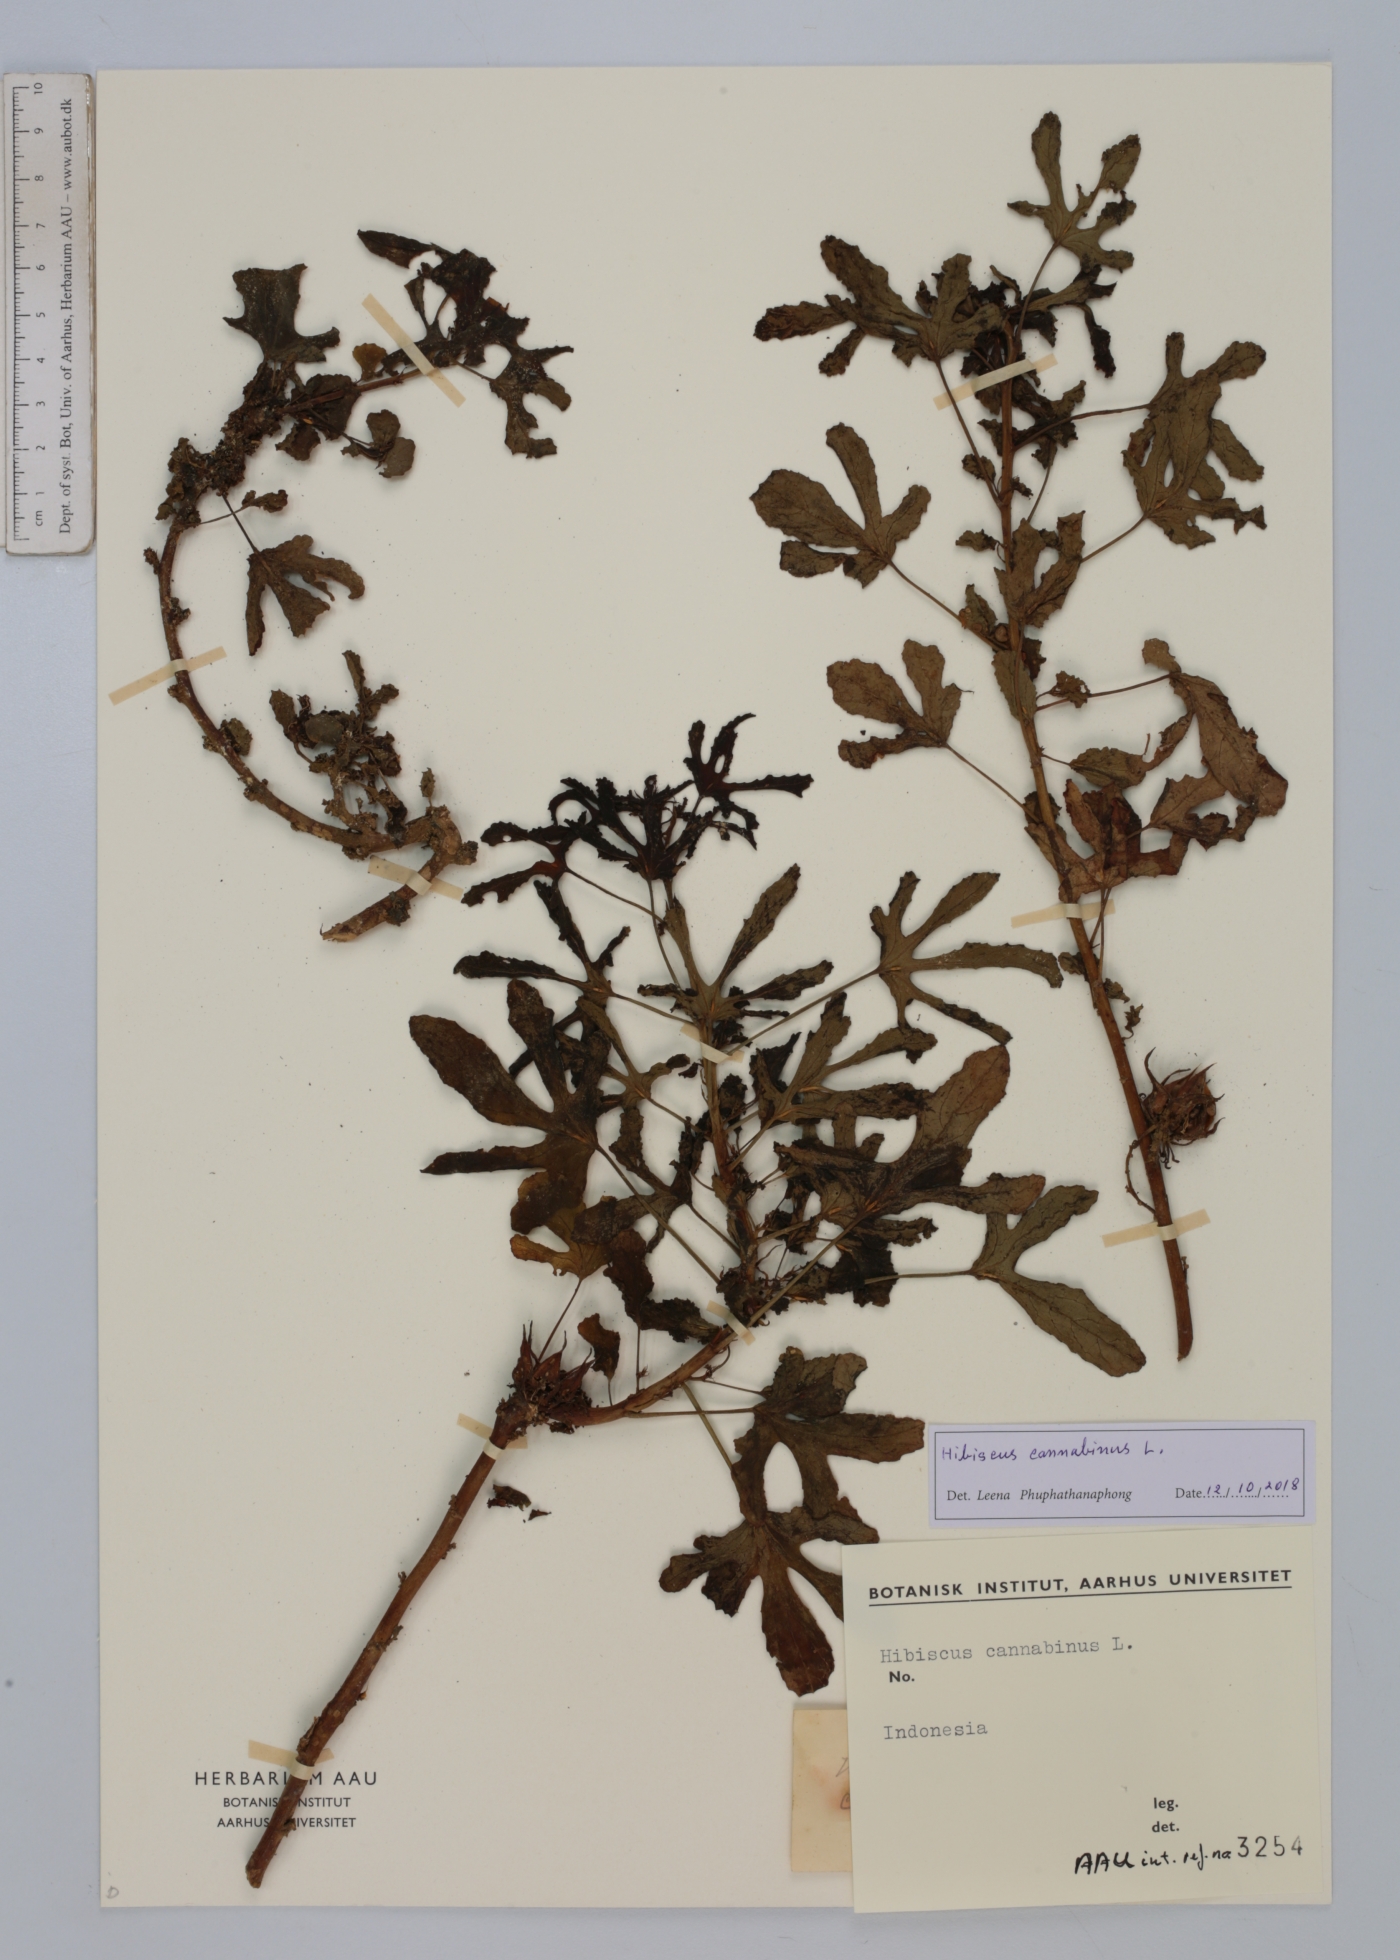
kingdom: Plantae
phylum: Tracheophyta
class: Magnoliopsida
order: Malvales
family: Malvaceae
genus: Hibiscus
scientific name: Hibiscus cannabinus
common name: Brown indianhemp
